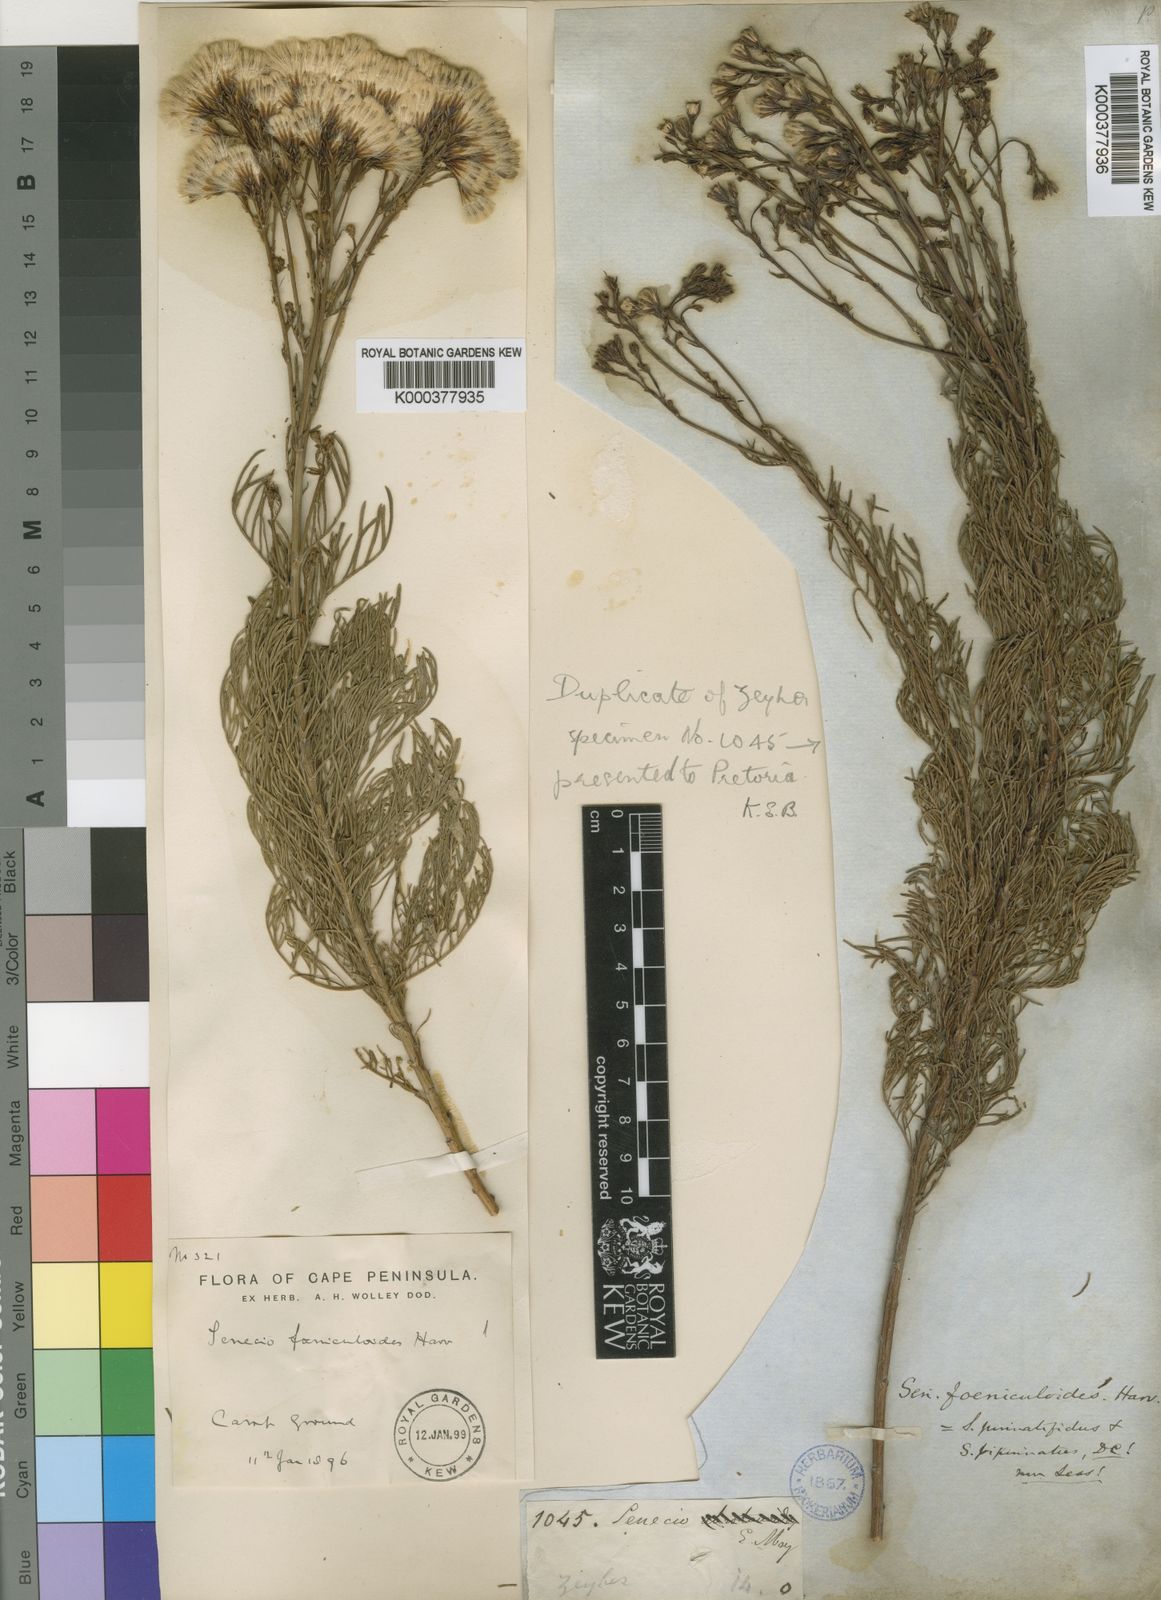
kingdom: Plantae
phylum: Tracheophyta
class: Magnoliopsida
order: Asterales
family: Asteraceae
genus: Senecio
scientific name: Senecio foeniculoides
